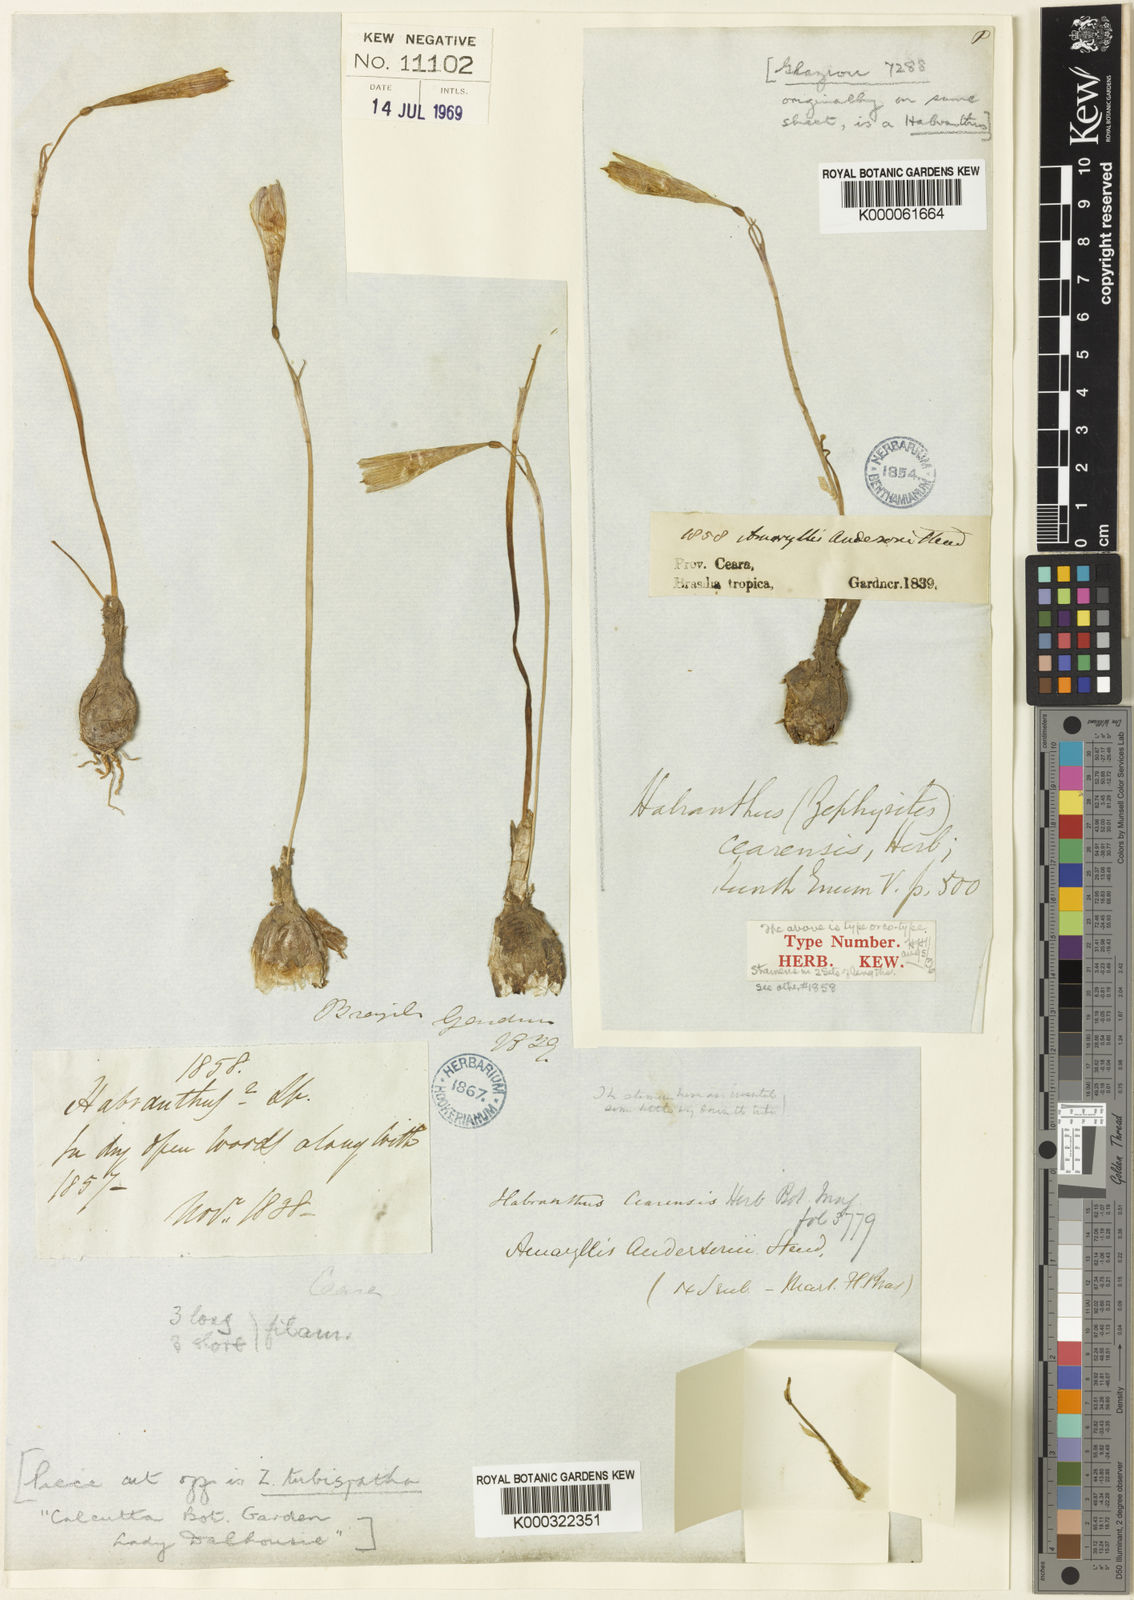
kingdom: Plantae
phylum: Tracheophyta
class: Liliopsida
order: Asparagales
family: Amaryllidaceae
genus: Zephyranthes
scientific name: Zephyranthes cearensis
